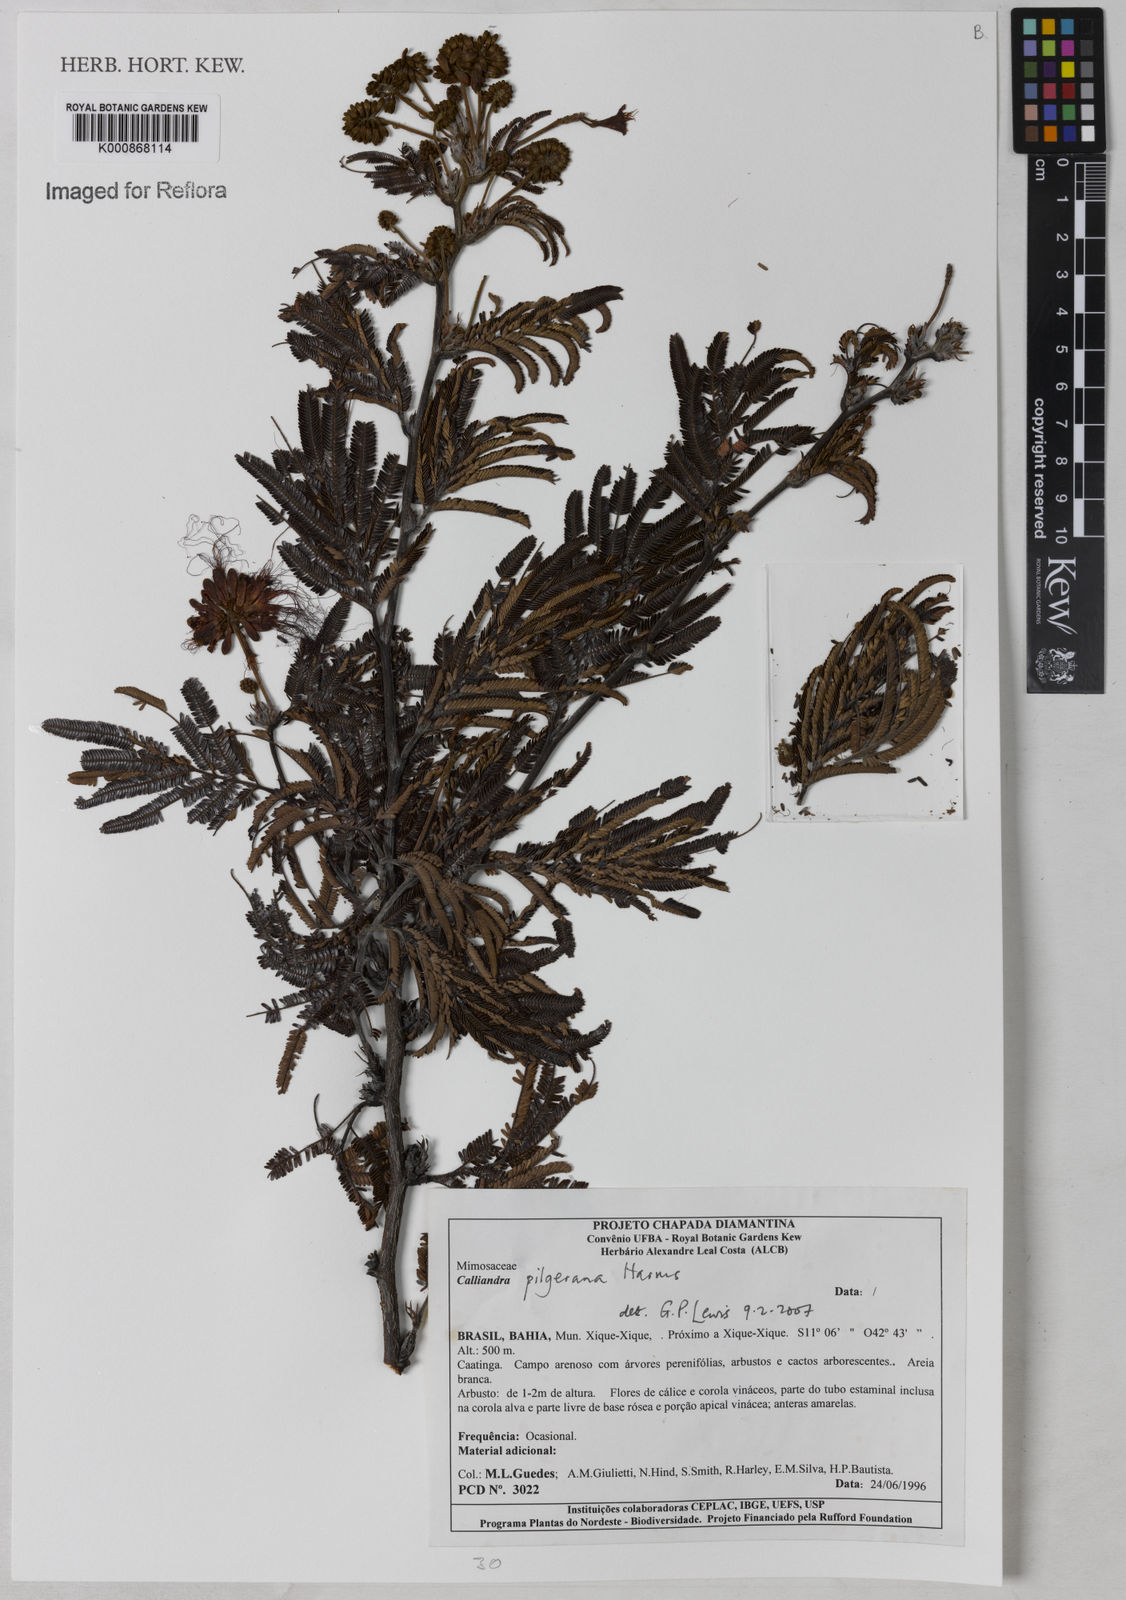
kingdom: Plantae
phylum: Tracheophyta
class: Magnoliopsida
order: Fabales
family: Fabaceae
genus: Calliandra
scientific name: Calliandra pilgeriana
